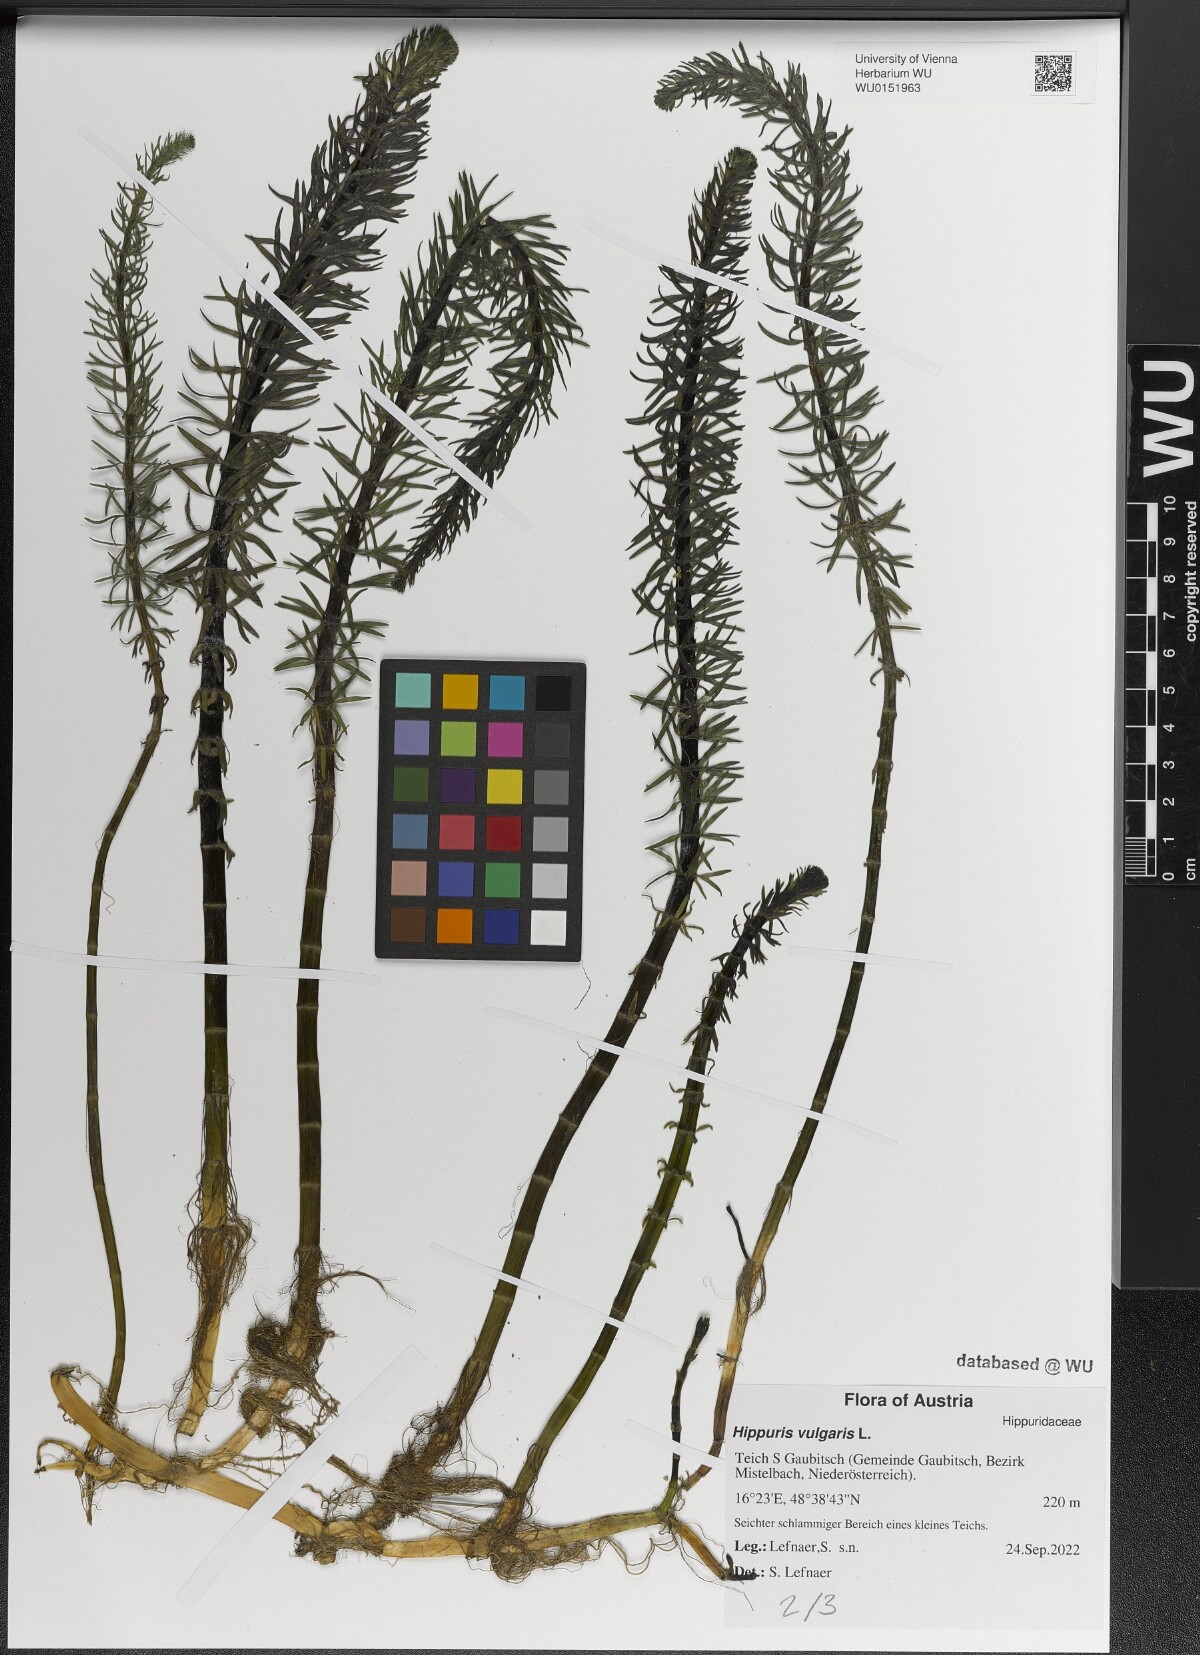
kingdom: Plantae
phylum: Tracheophyta
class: Magnoliopsida
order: Lamiales
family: Plantaginaceae
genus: Hippuris
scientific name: Hippuris vulgaris
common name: Mare's-tail
